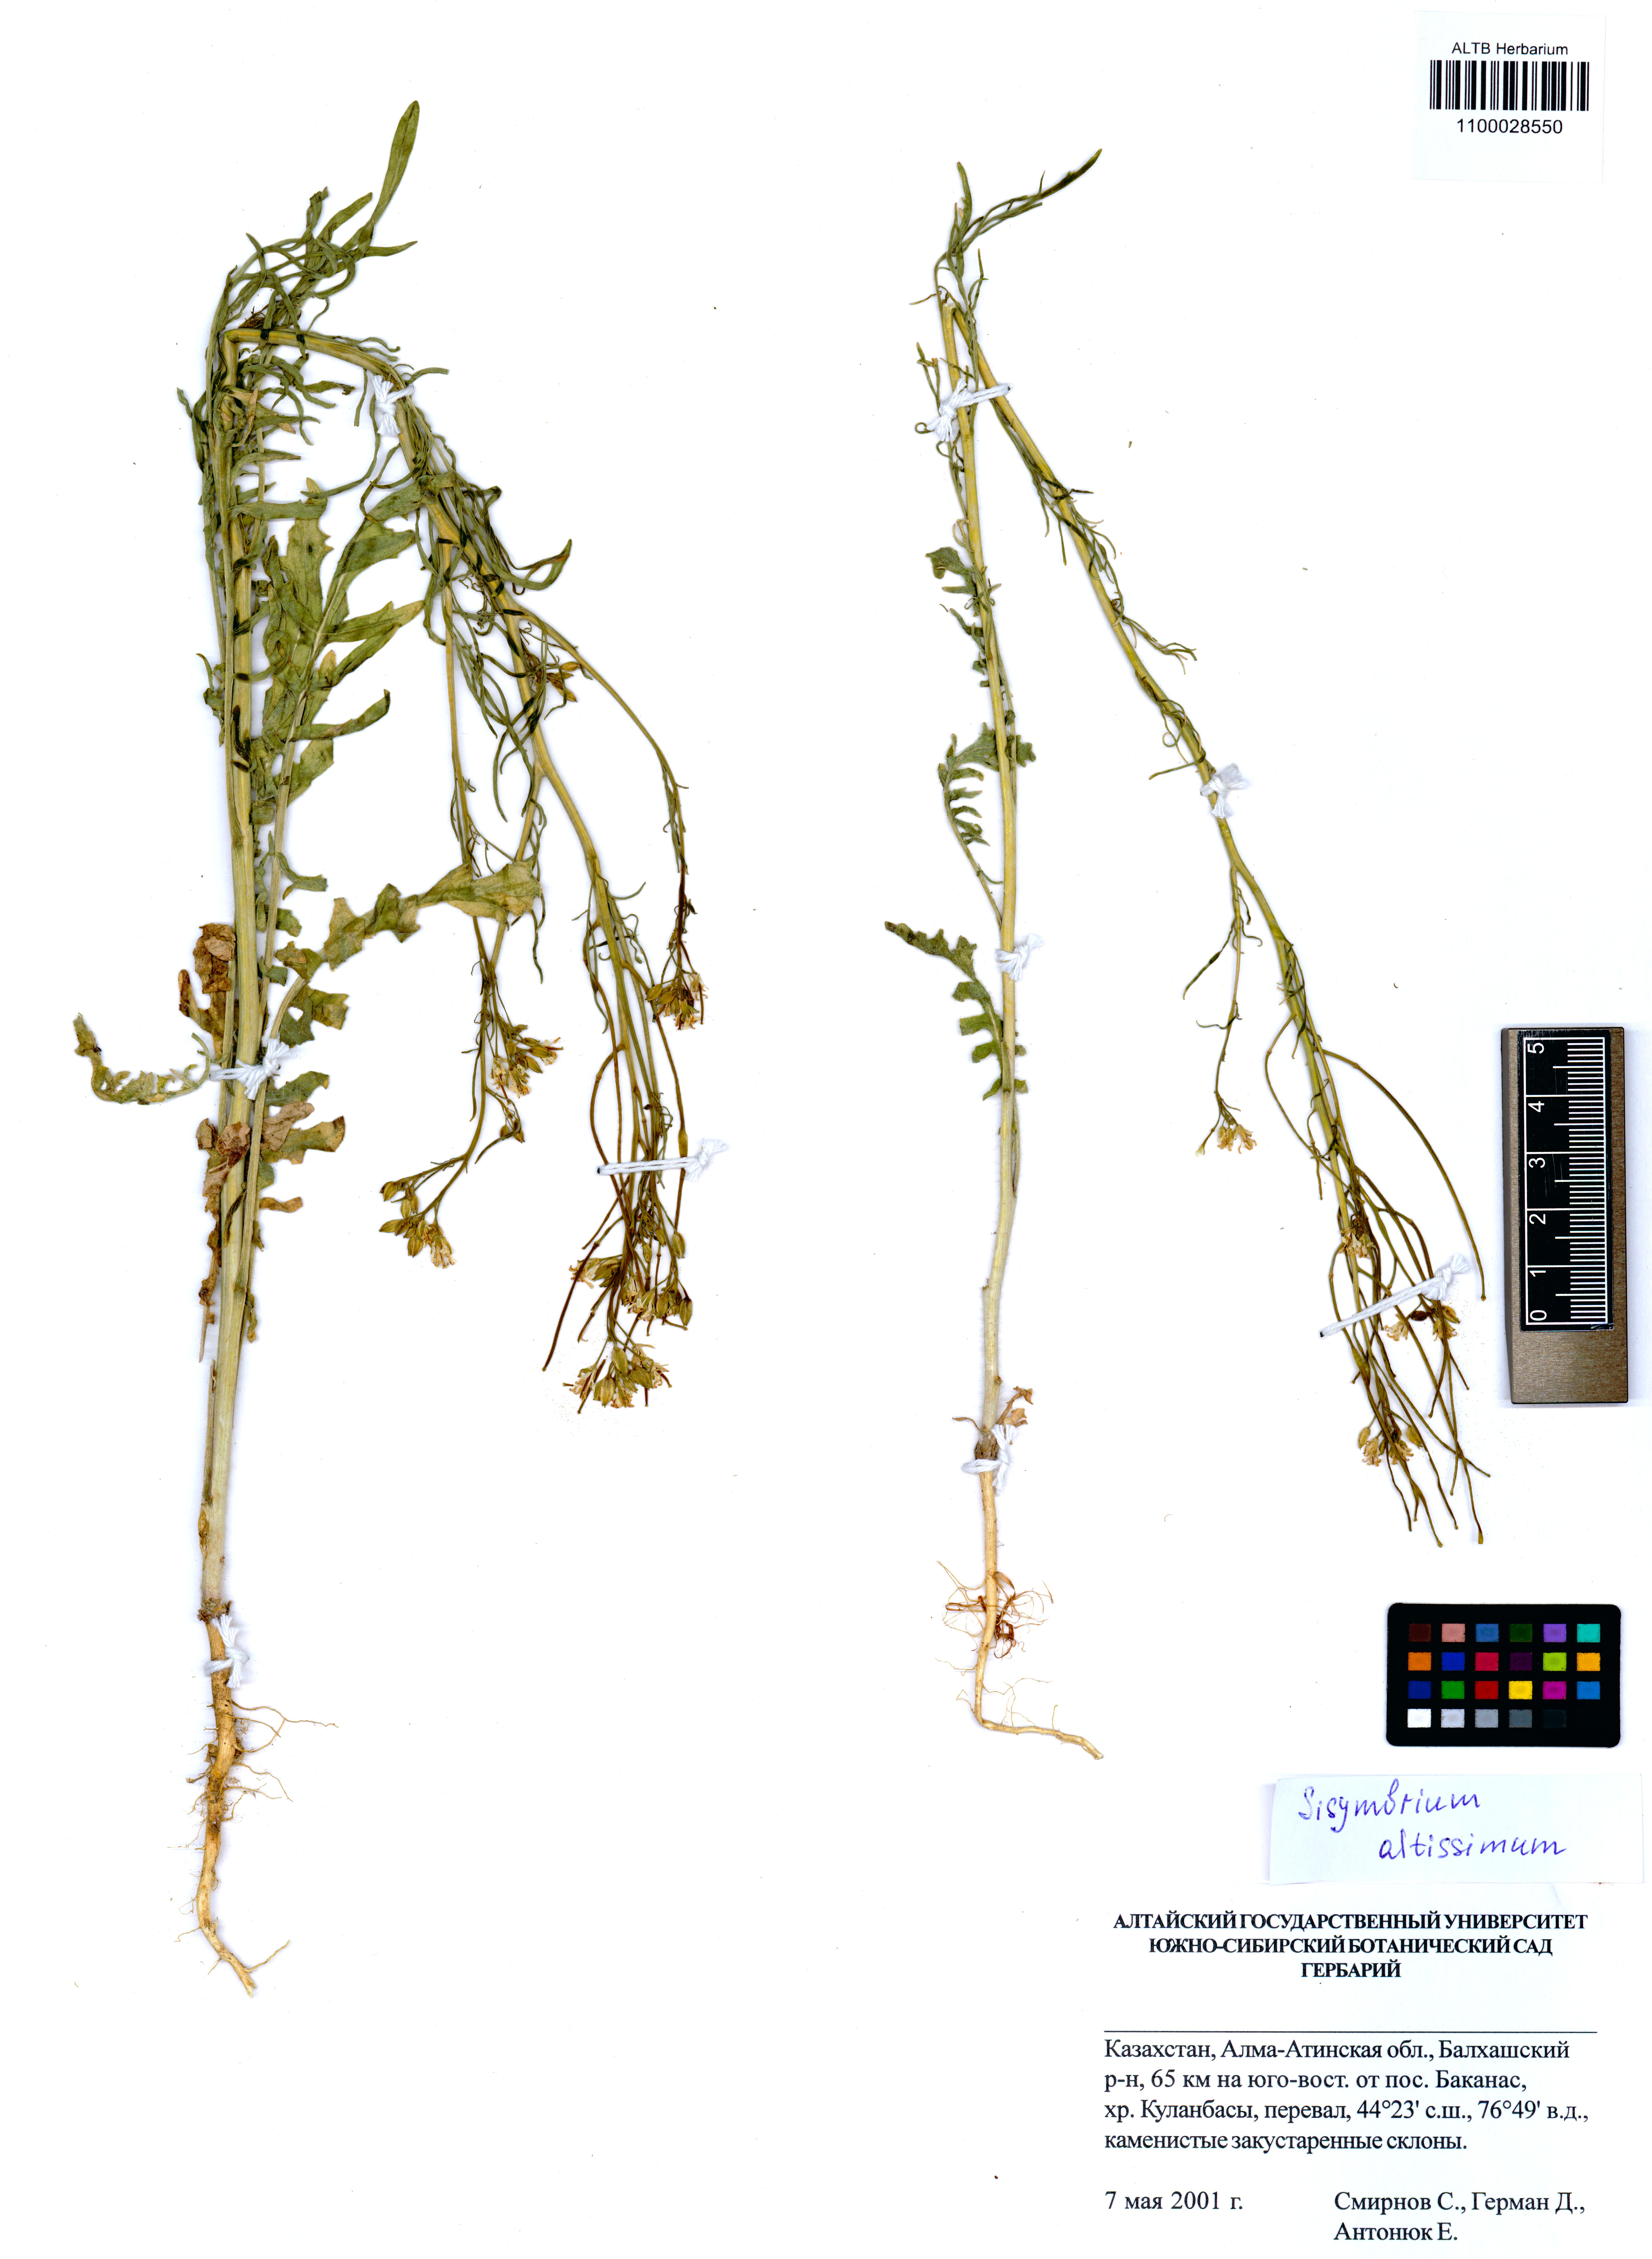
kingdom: Plantae
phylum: Tracheophyta
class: Magnoliopsida
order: Brassicales
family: Brassicaceae
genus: Sisymbrium
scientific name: Sisymbrium altissimum
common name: Tall rocket
